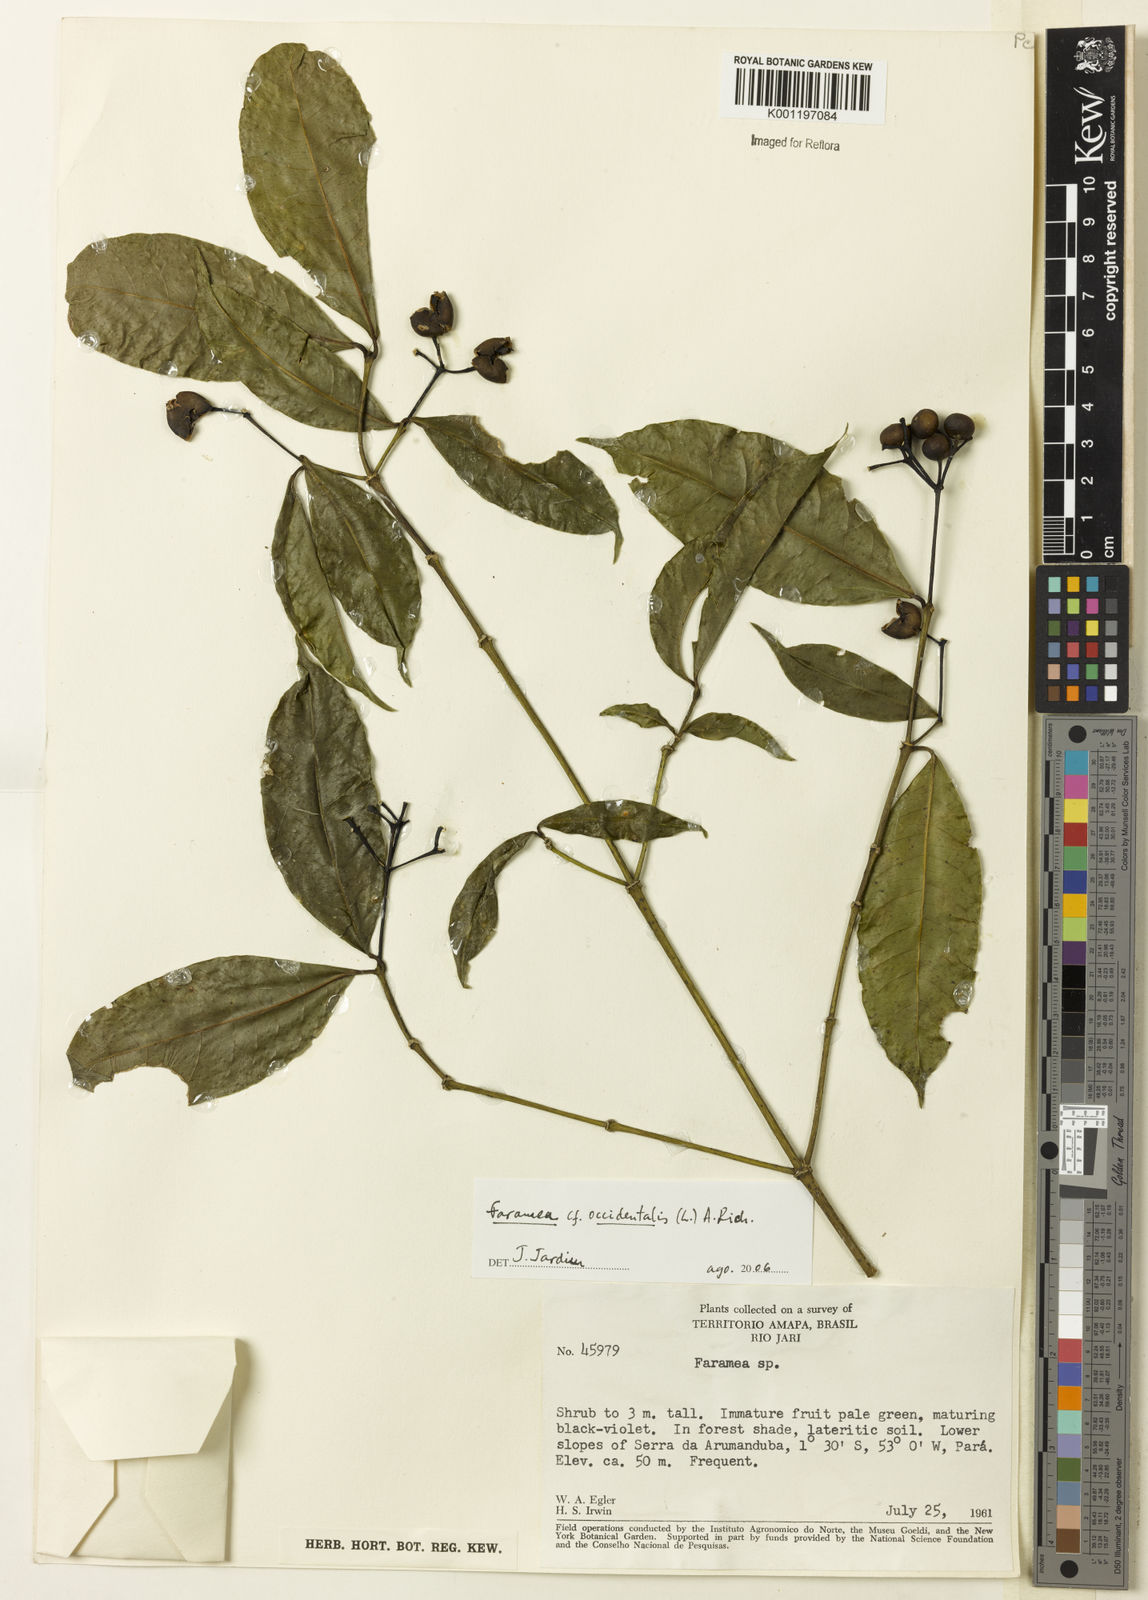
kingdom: Plantae
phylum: Tracheophyta
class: Magnoliopsida
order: Gentianales
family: Rubiaceae
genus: Faramea
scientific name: Faramea occidentalis
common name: False coffee
